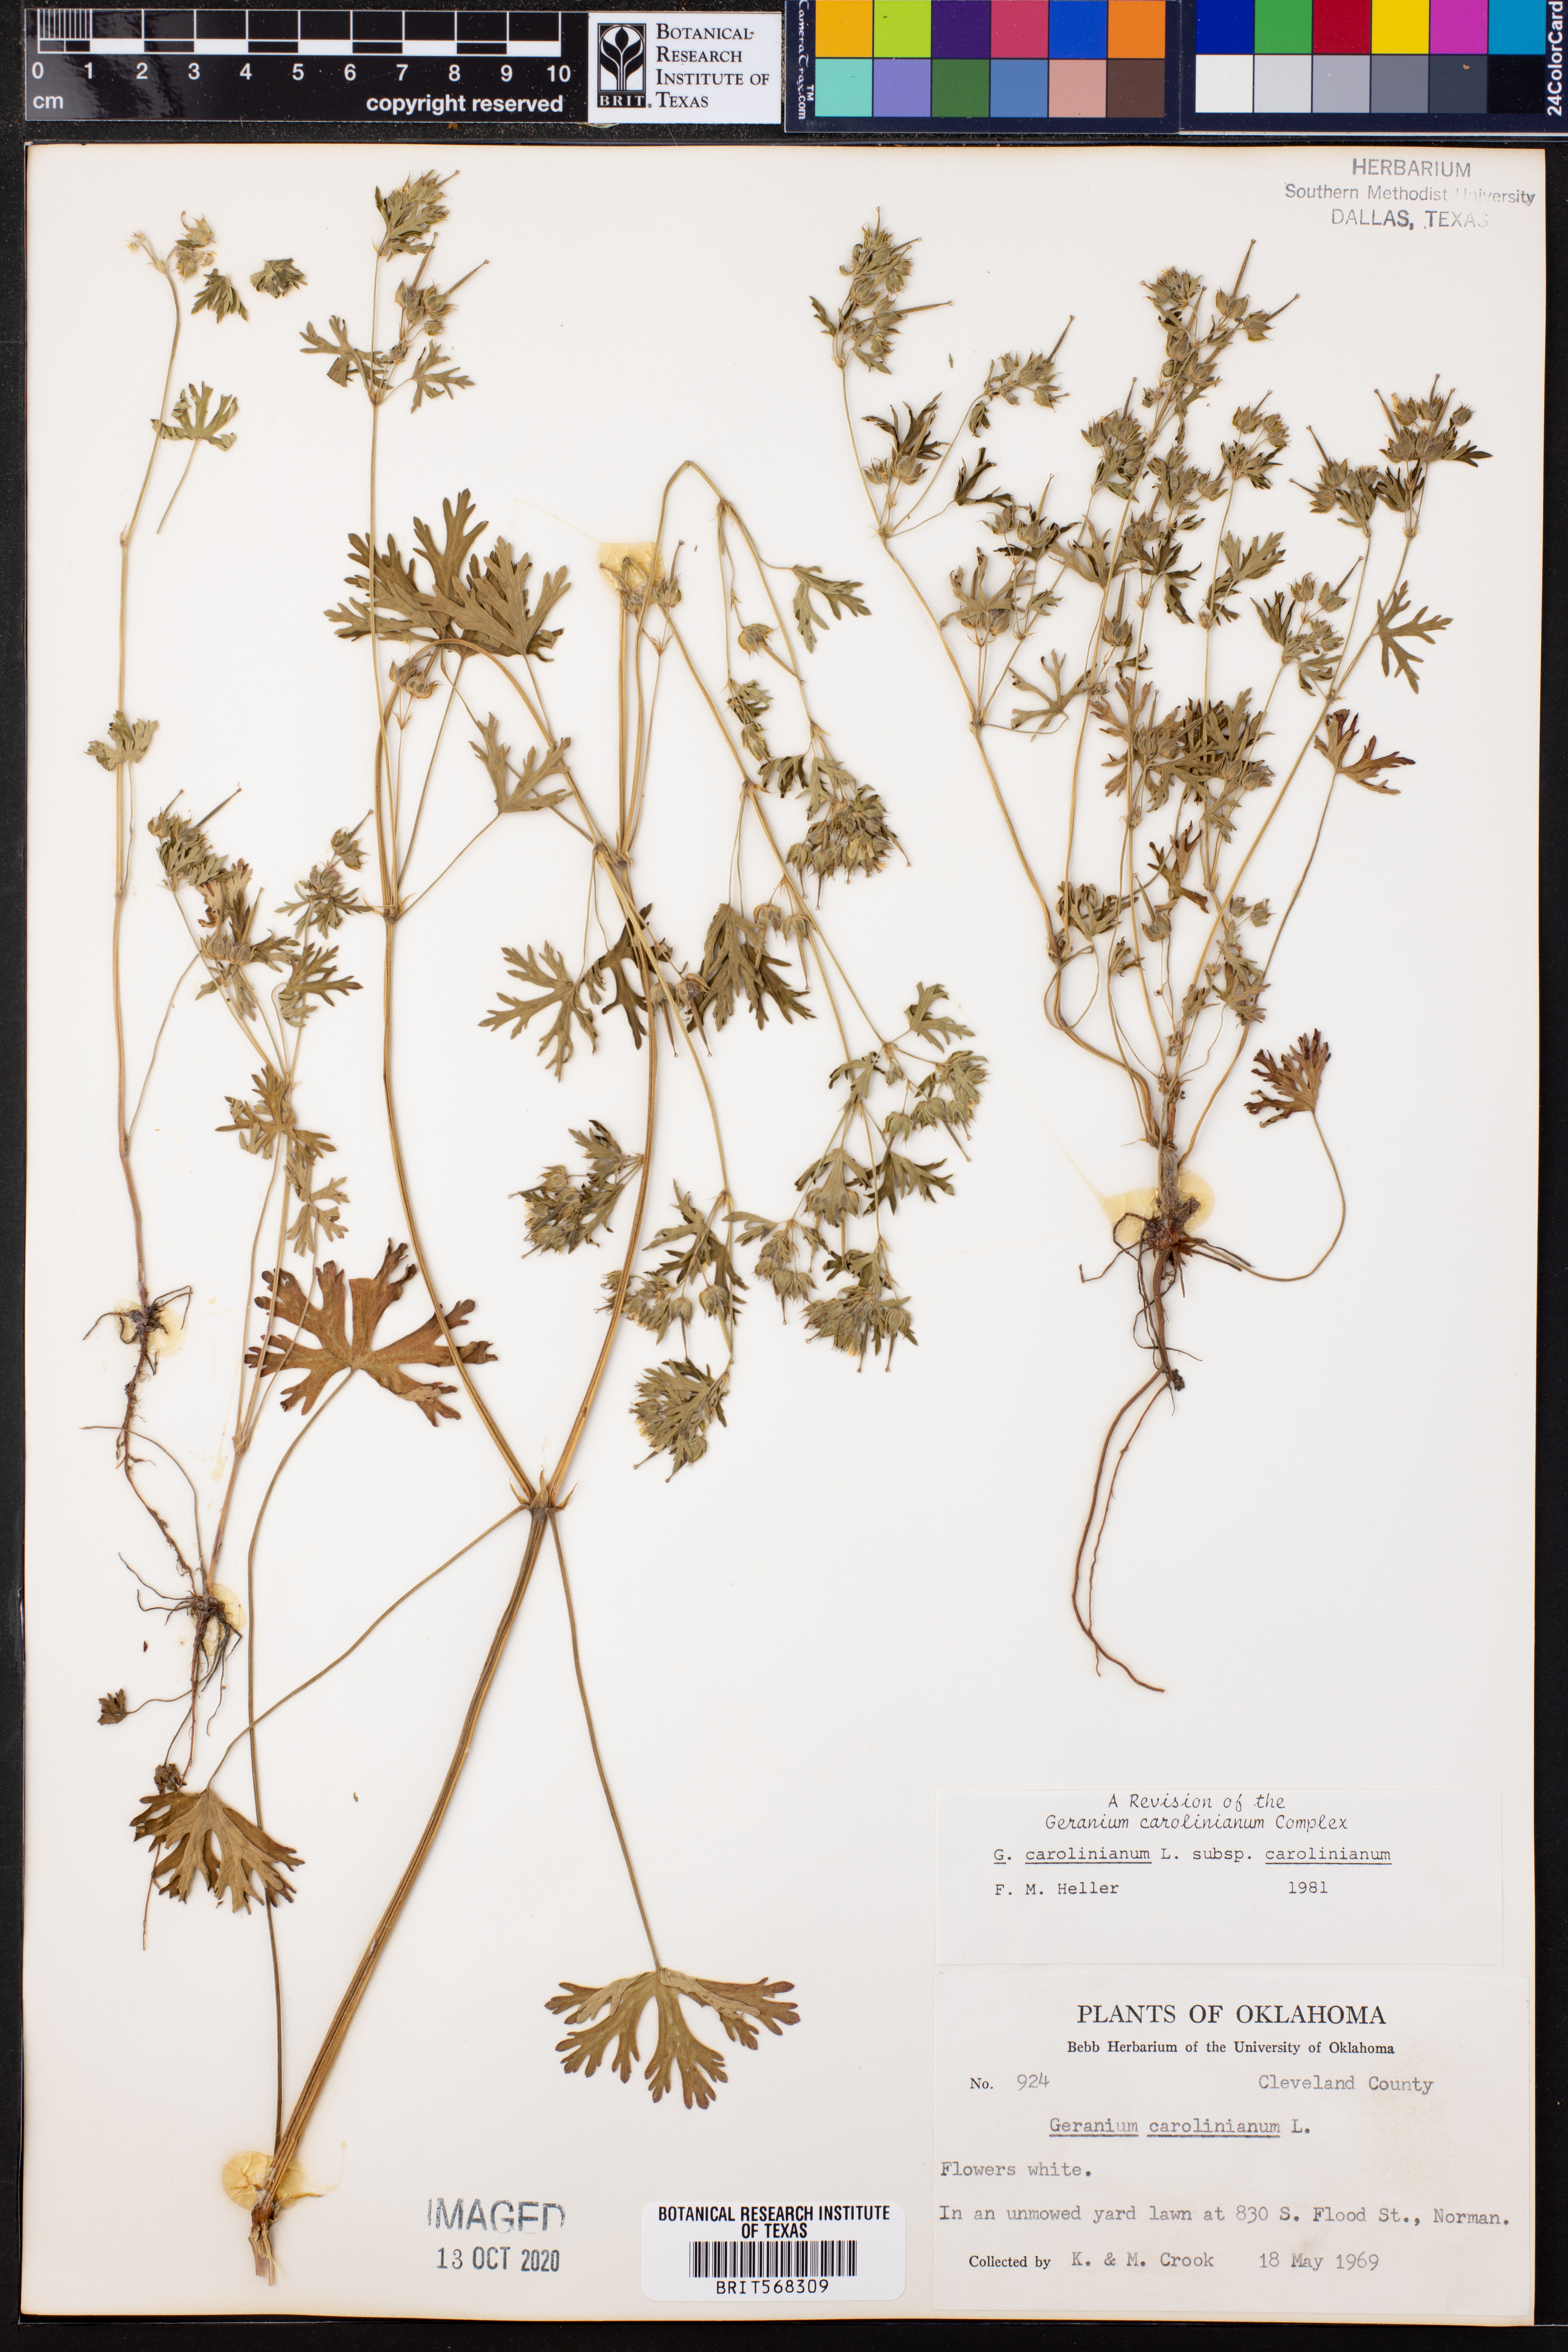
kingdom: Plantae
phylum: Tracheophyta
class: Magnoliopsida
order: Geraniales
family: Geraniaceae
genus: Geranium
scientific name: Geranium carolinianum
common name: Carolina crane's-bill
